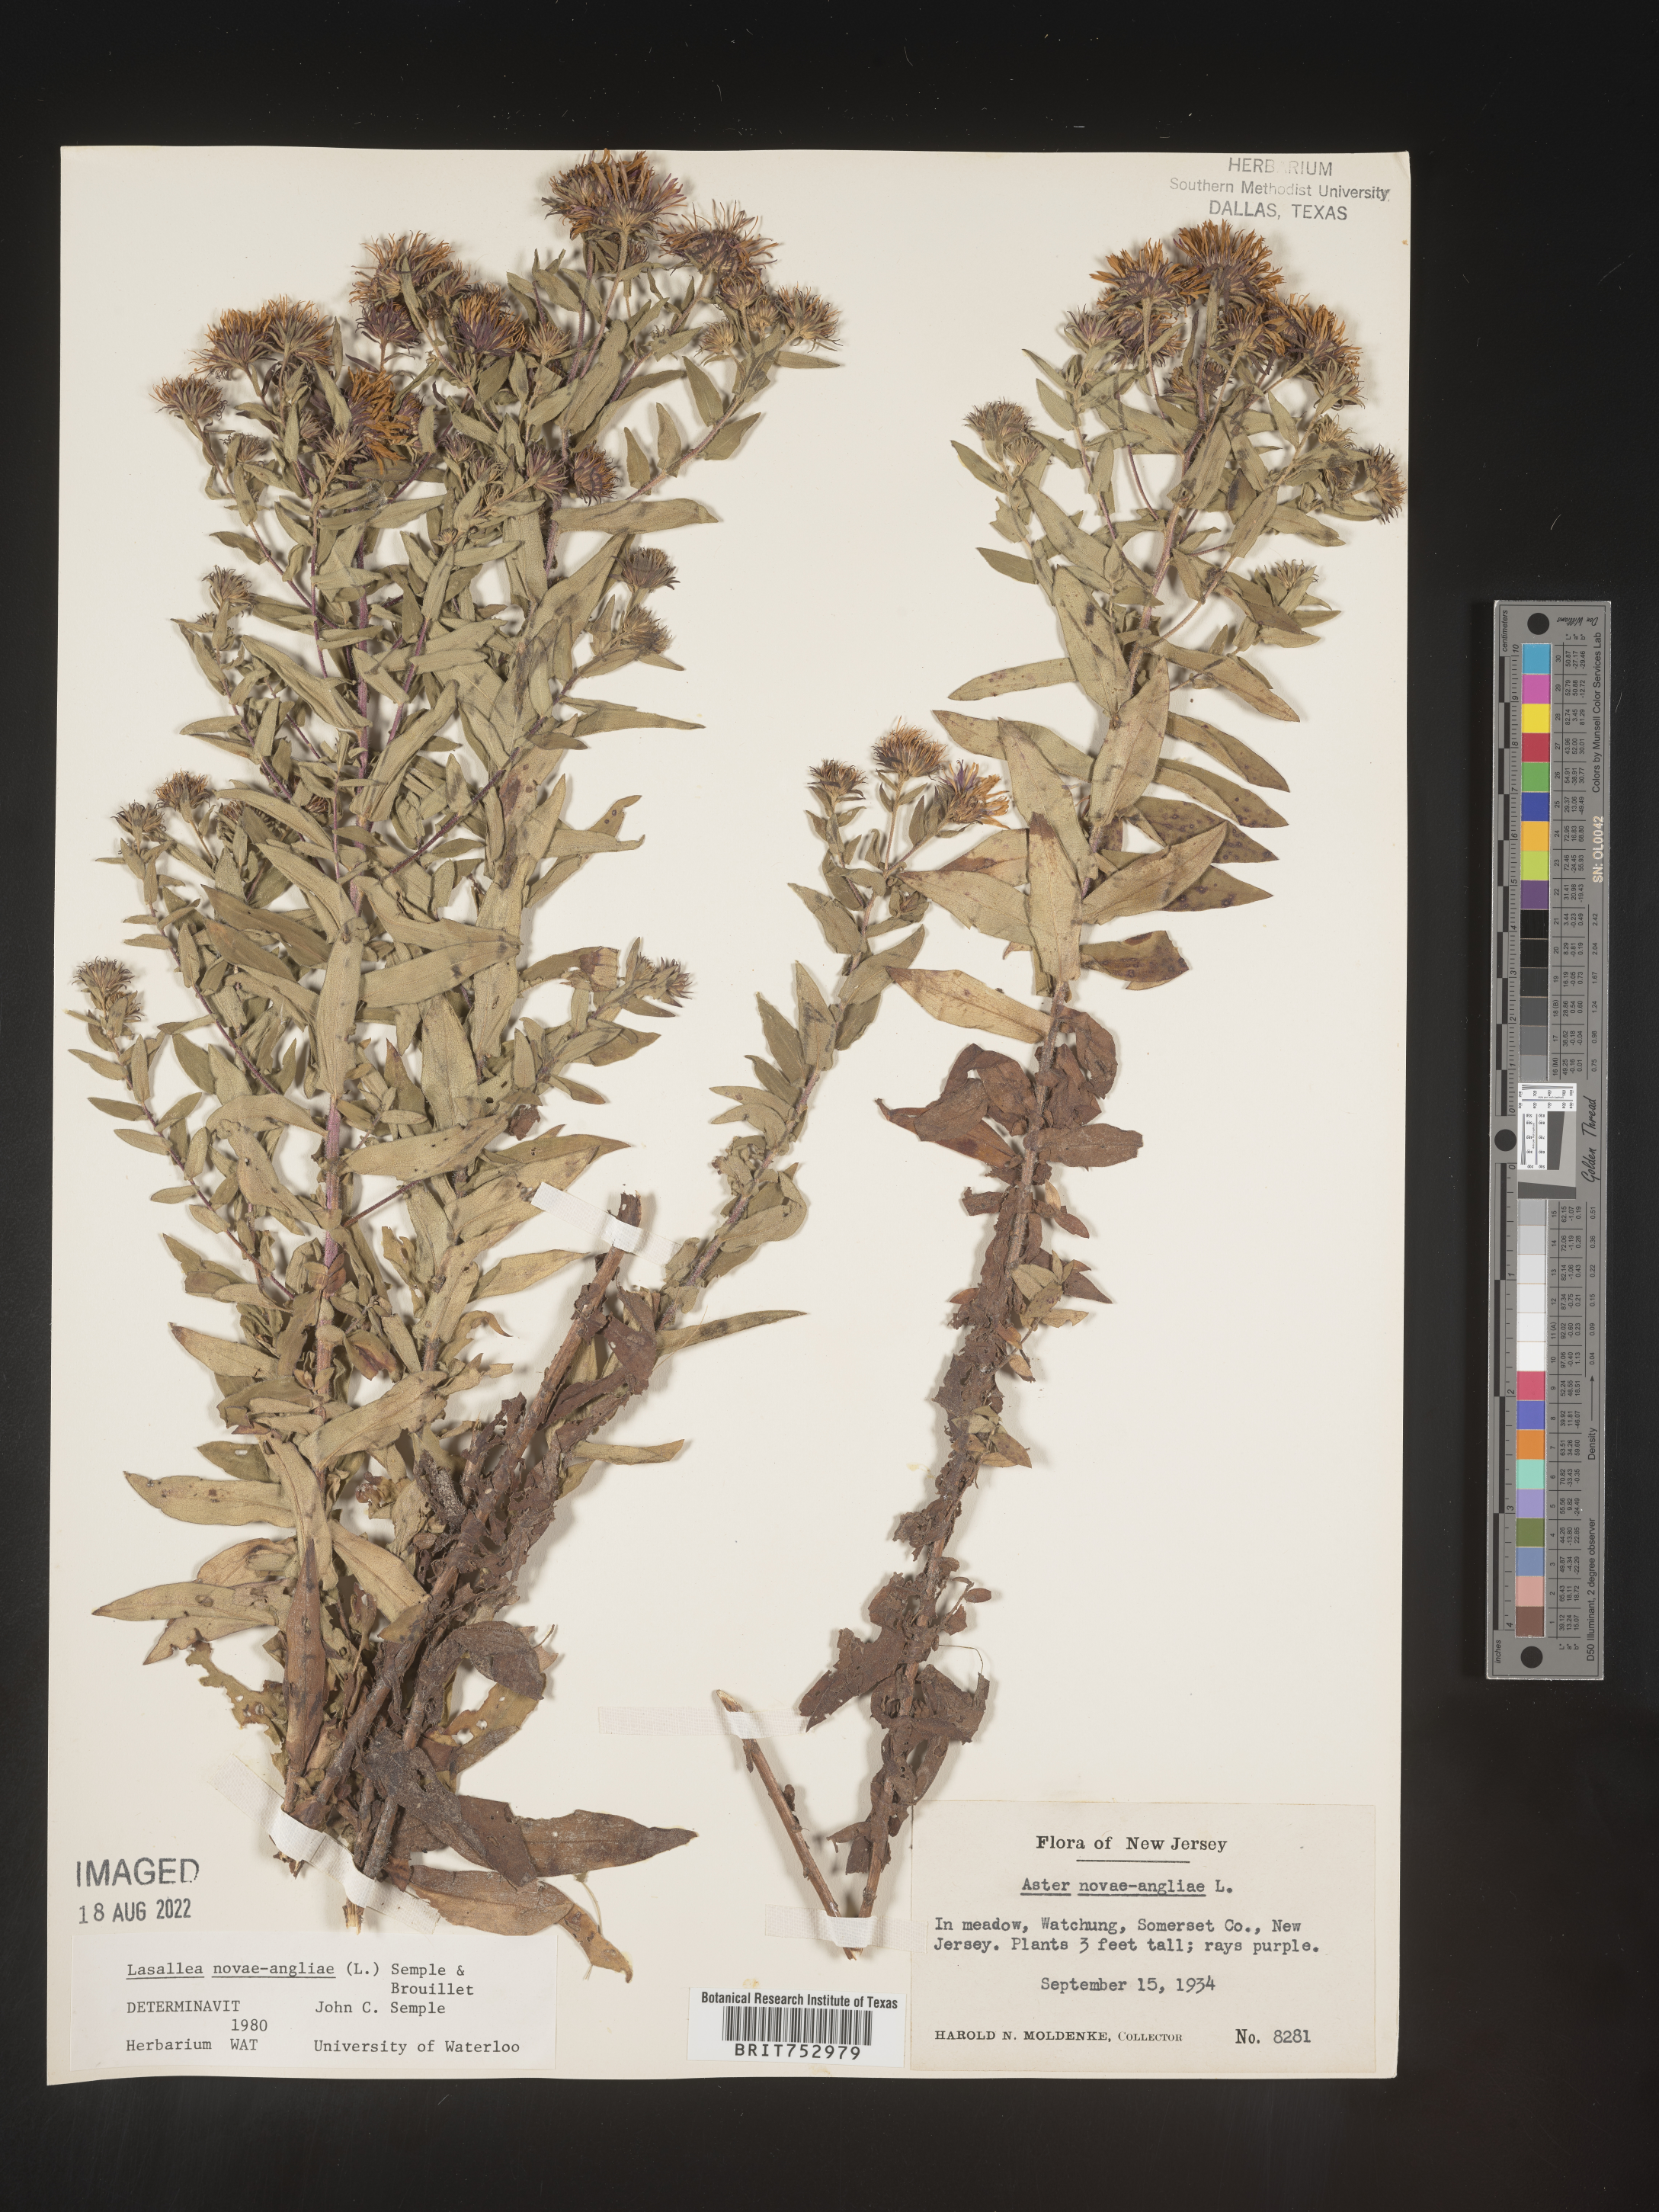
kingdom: Plantae
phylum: Tracheophyta
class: Magnoliopsida
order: Asterales
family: Asteraceae
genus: Symphyotrichum
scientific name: Symphyotrichum novae-angliae
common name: Michaelmas daisy
